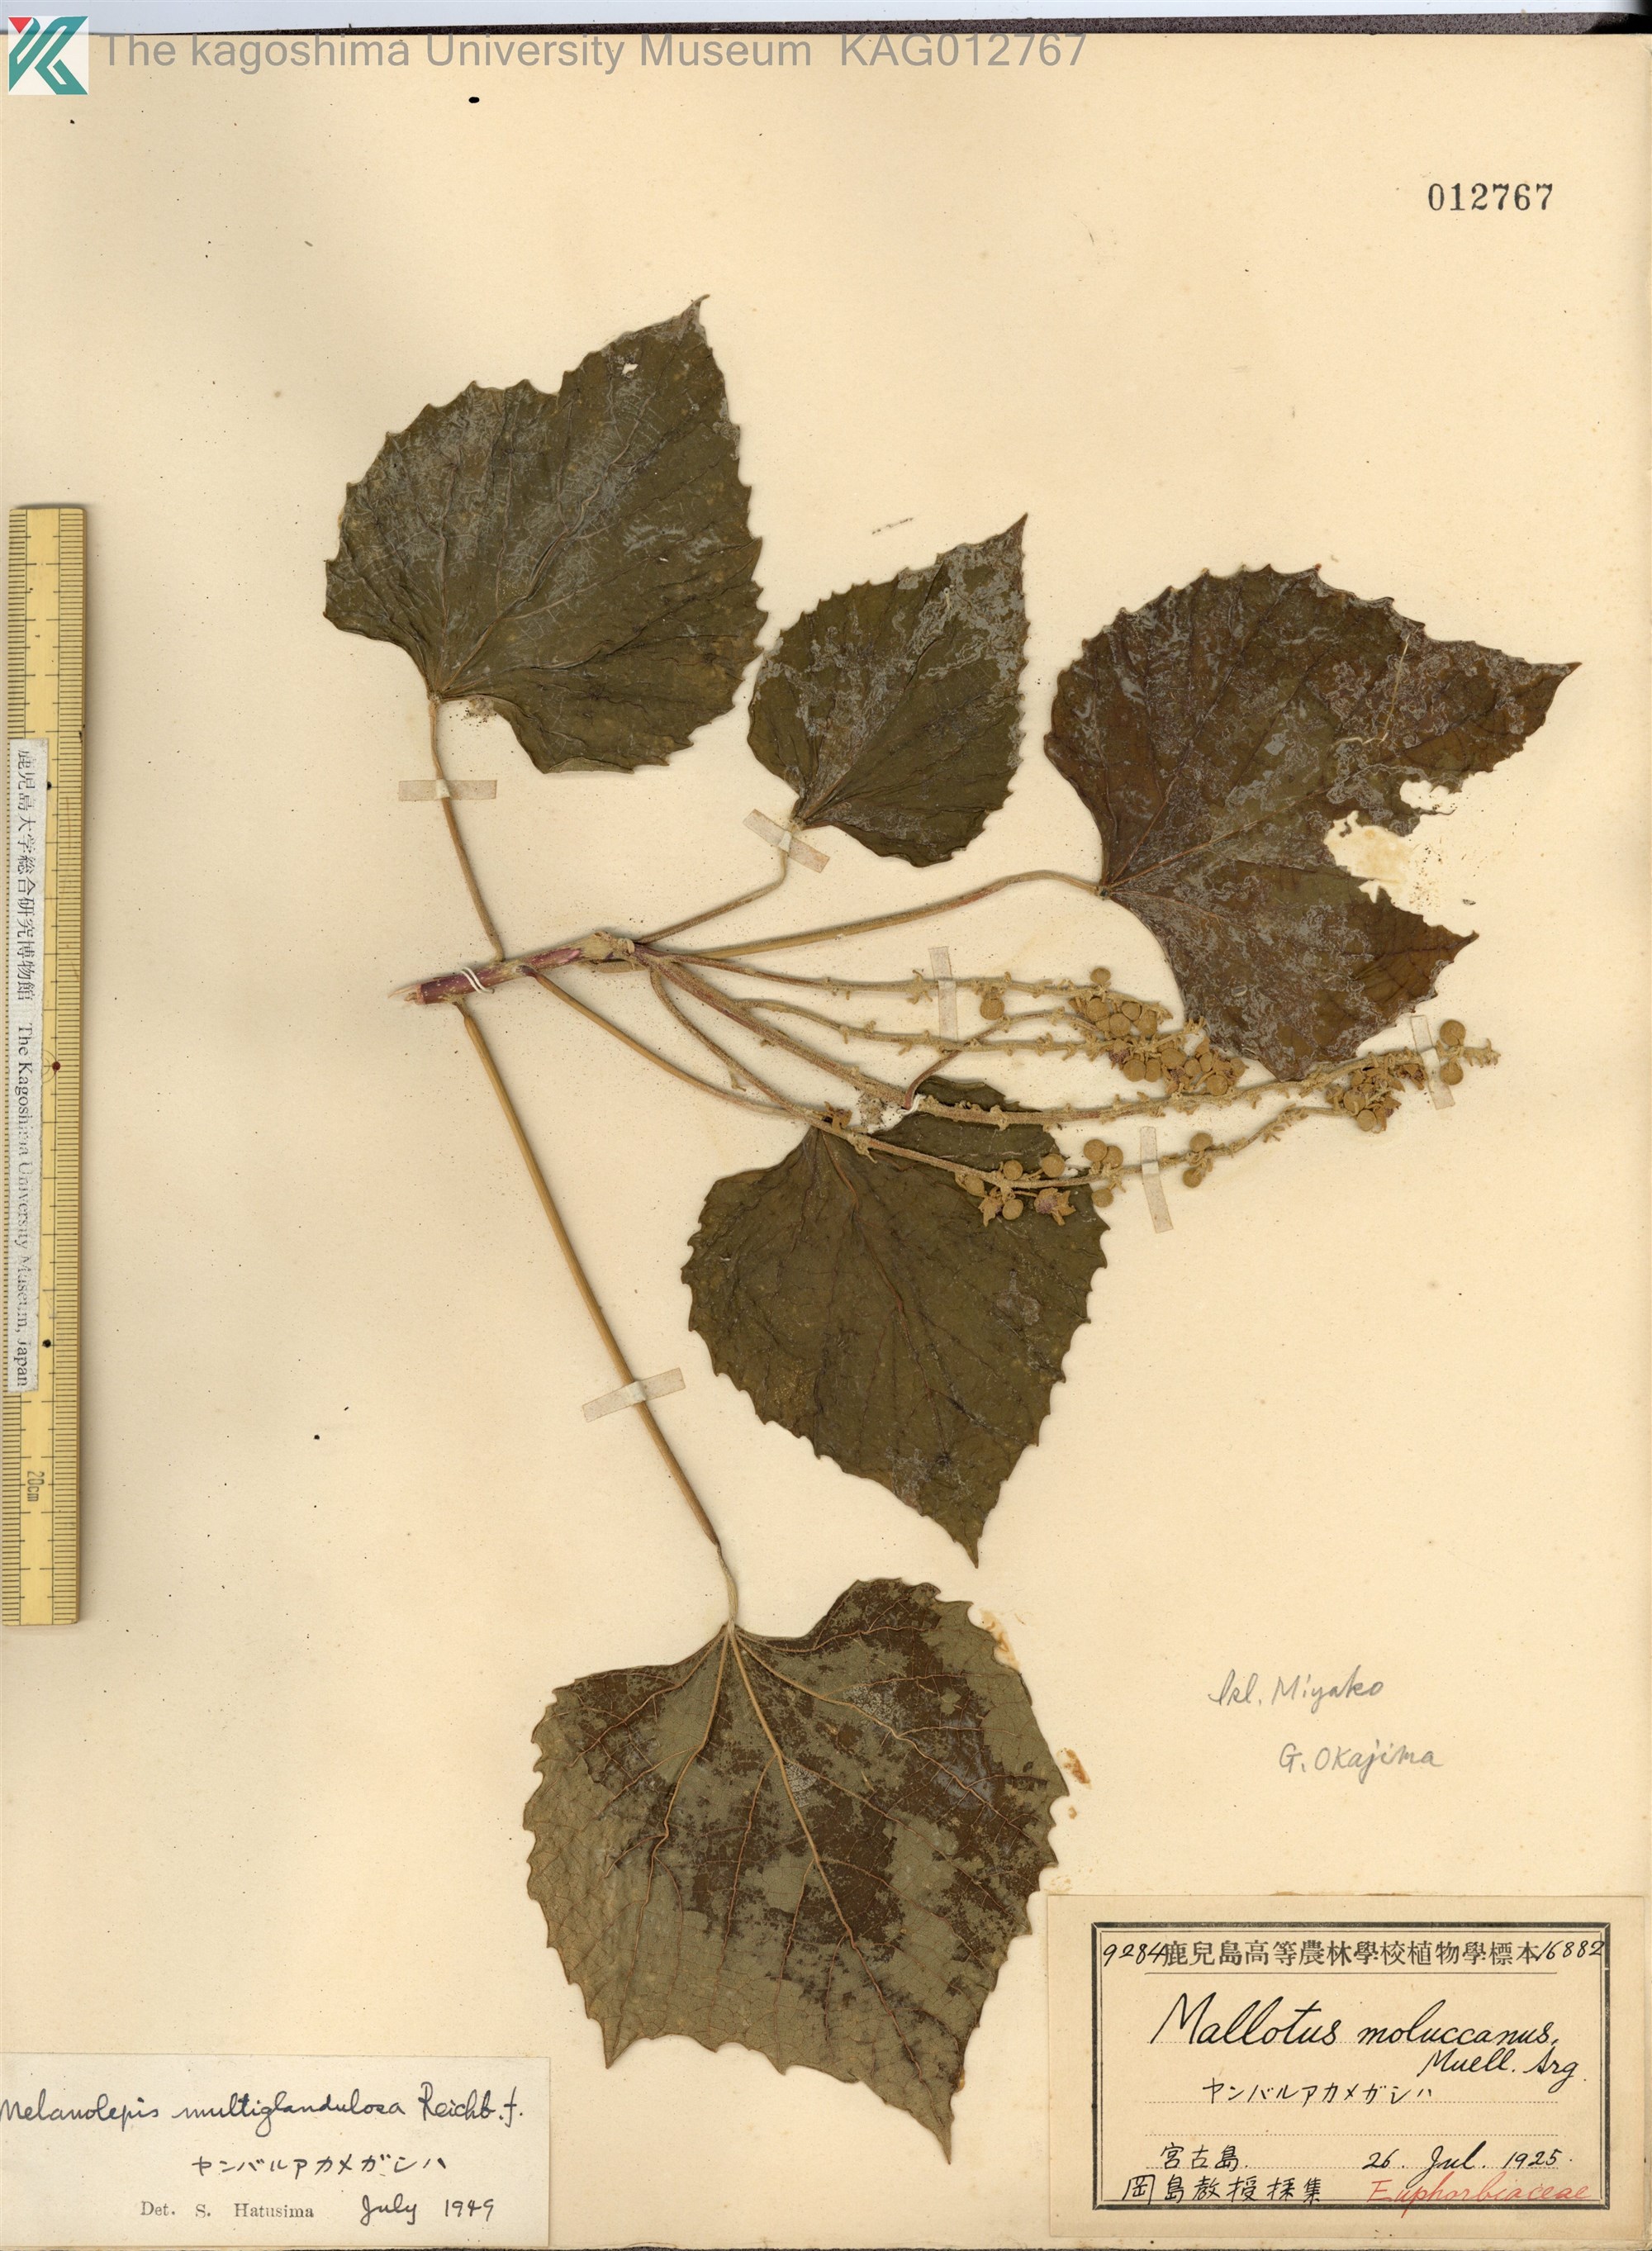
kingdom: Plantae
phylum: Tracheophyta
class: Magnoliopsida
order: Malpighiales
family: Euphorbiaceae
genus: Melanolepis
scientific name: Melanolepis multiglandulosa
